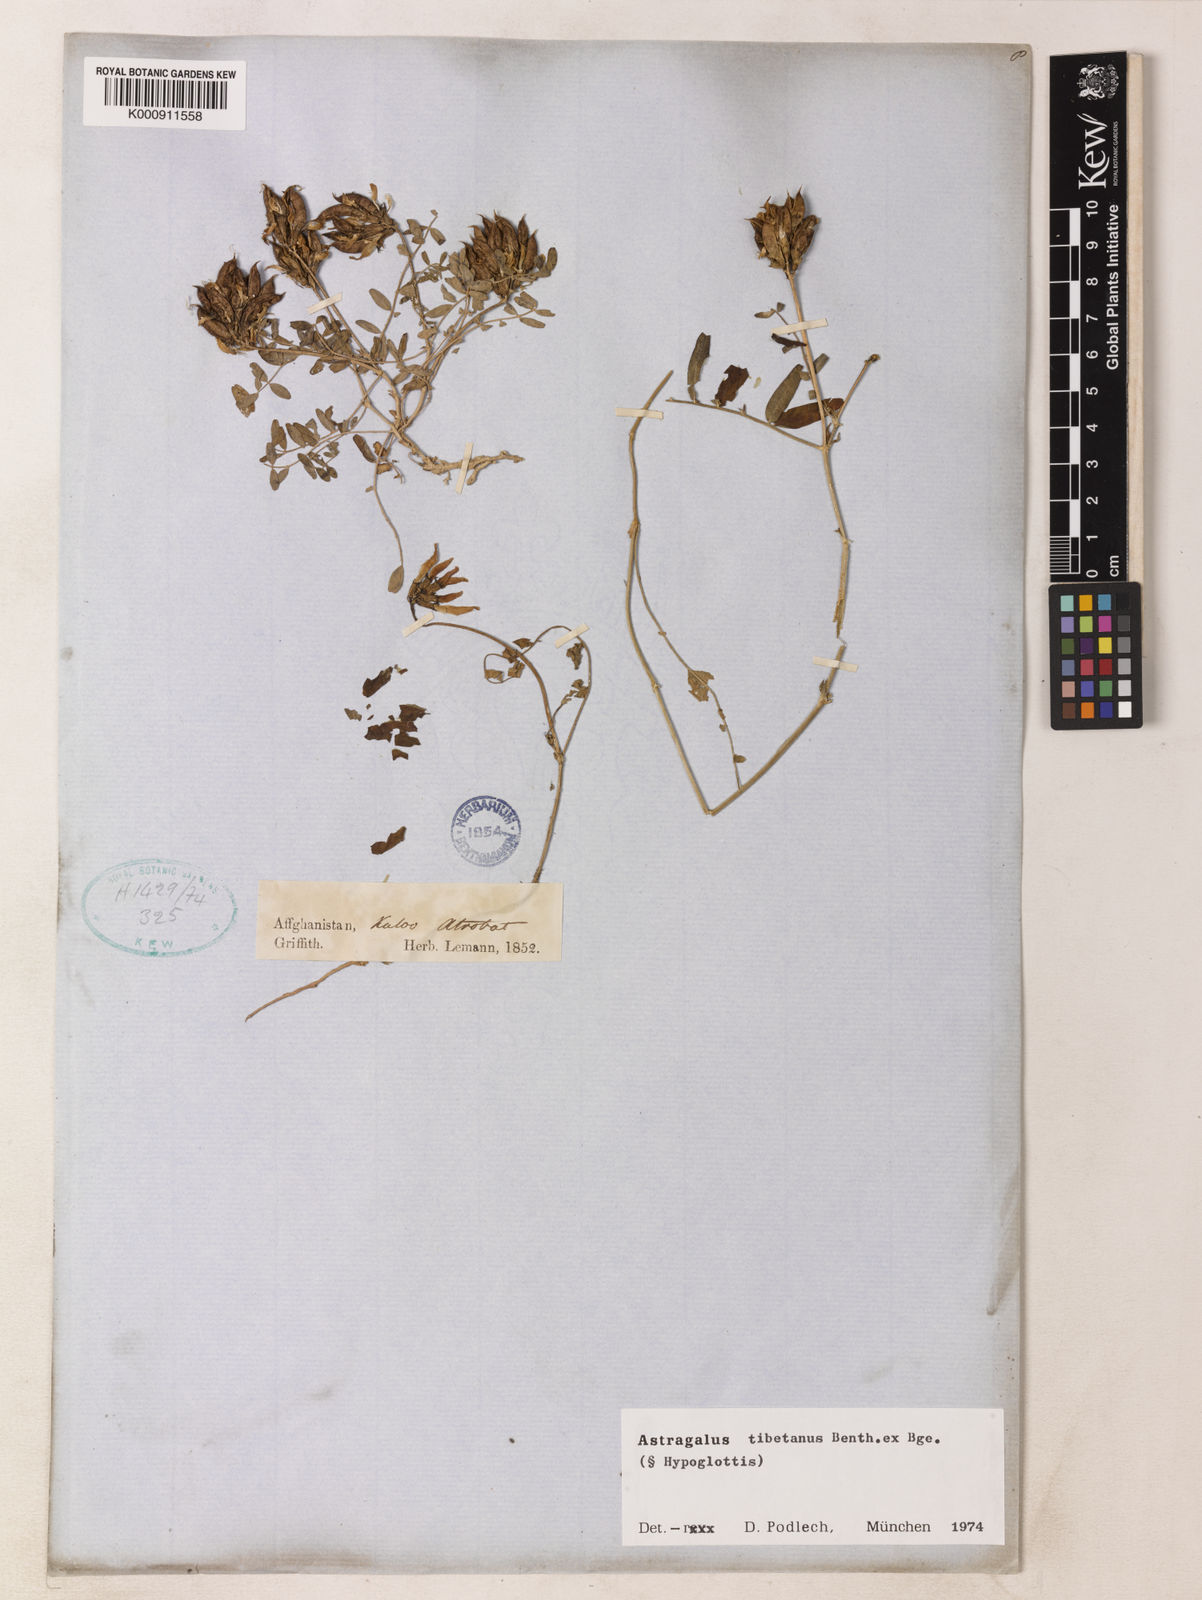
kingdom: Plantae
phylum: Tracheophyta
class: Magnoliopsida
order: Fabales
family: Fabaceae
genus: Astragalus
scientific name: Astragalus tibetanus
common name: Tibet milkvetch
